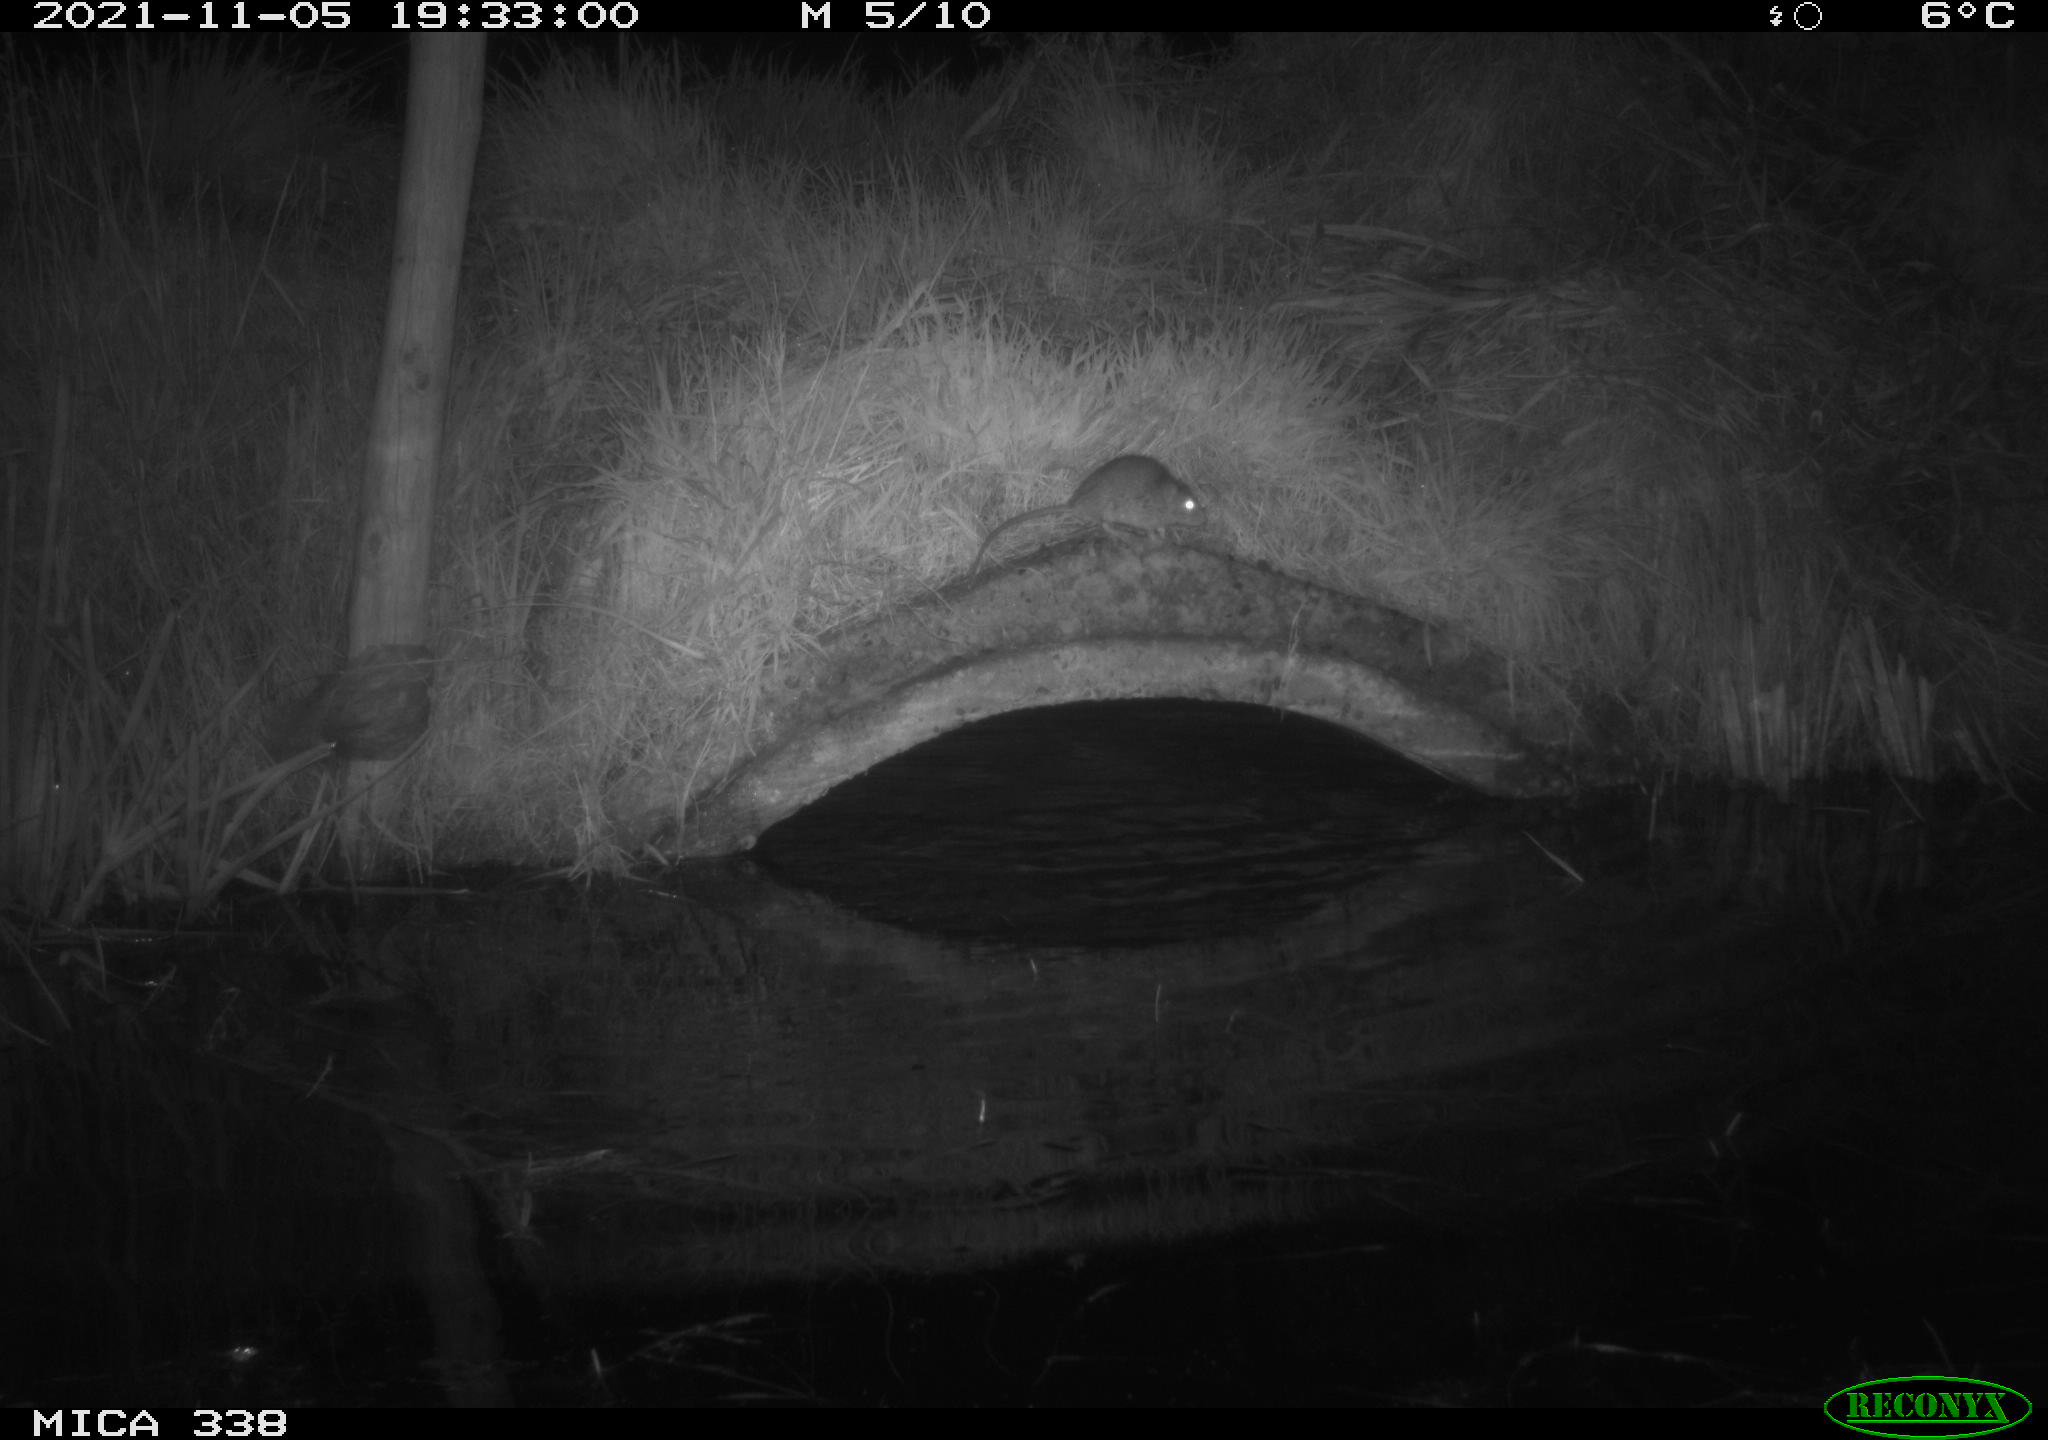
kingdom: Animalia
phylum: Chordata
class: Mammalia
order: Rodentia
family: Muridae
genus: Rattus
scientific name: Rattus norvegicus
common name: Brown rat
